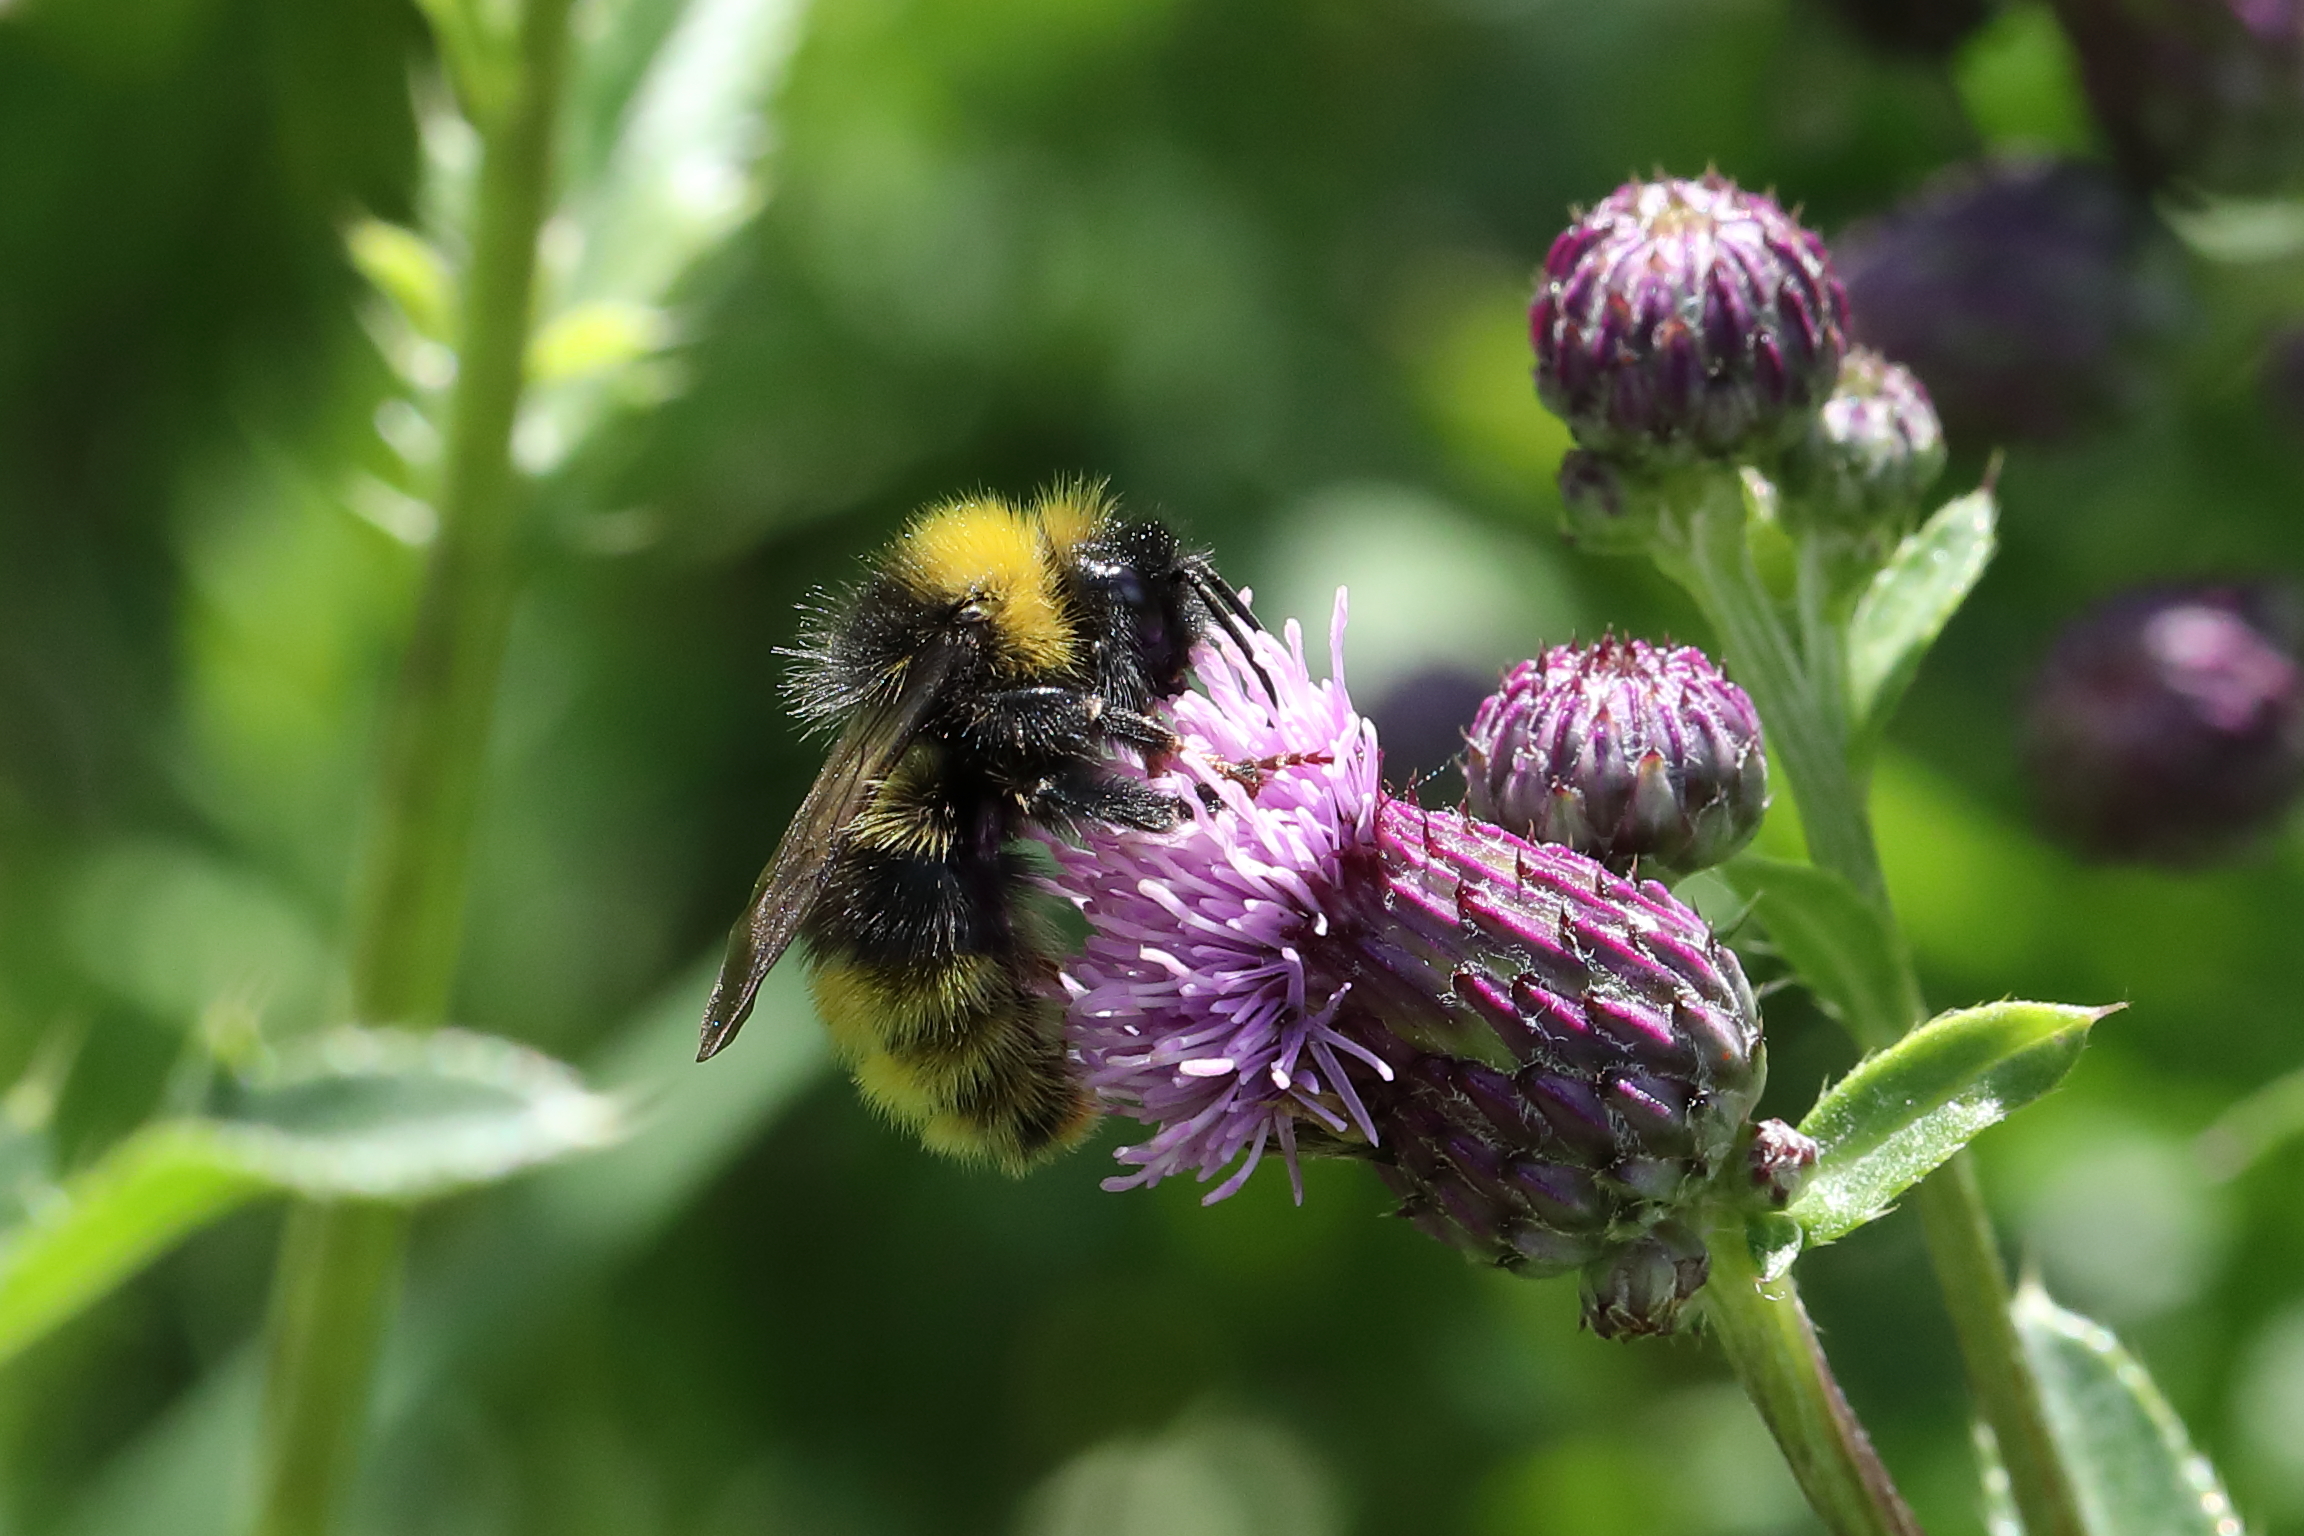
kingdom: Animalia
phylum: Arthropoda
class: Insecta
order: Hymenoptera
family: Apidae
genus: Bombus
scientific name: Bombus sylvestris
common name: Forest cuckoo bee
